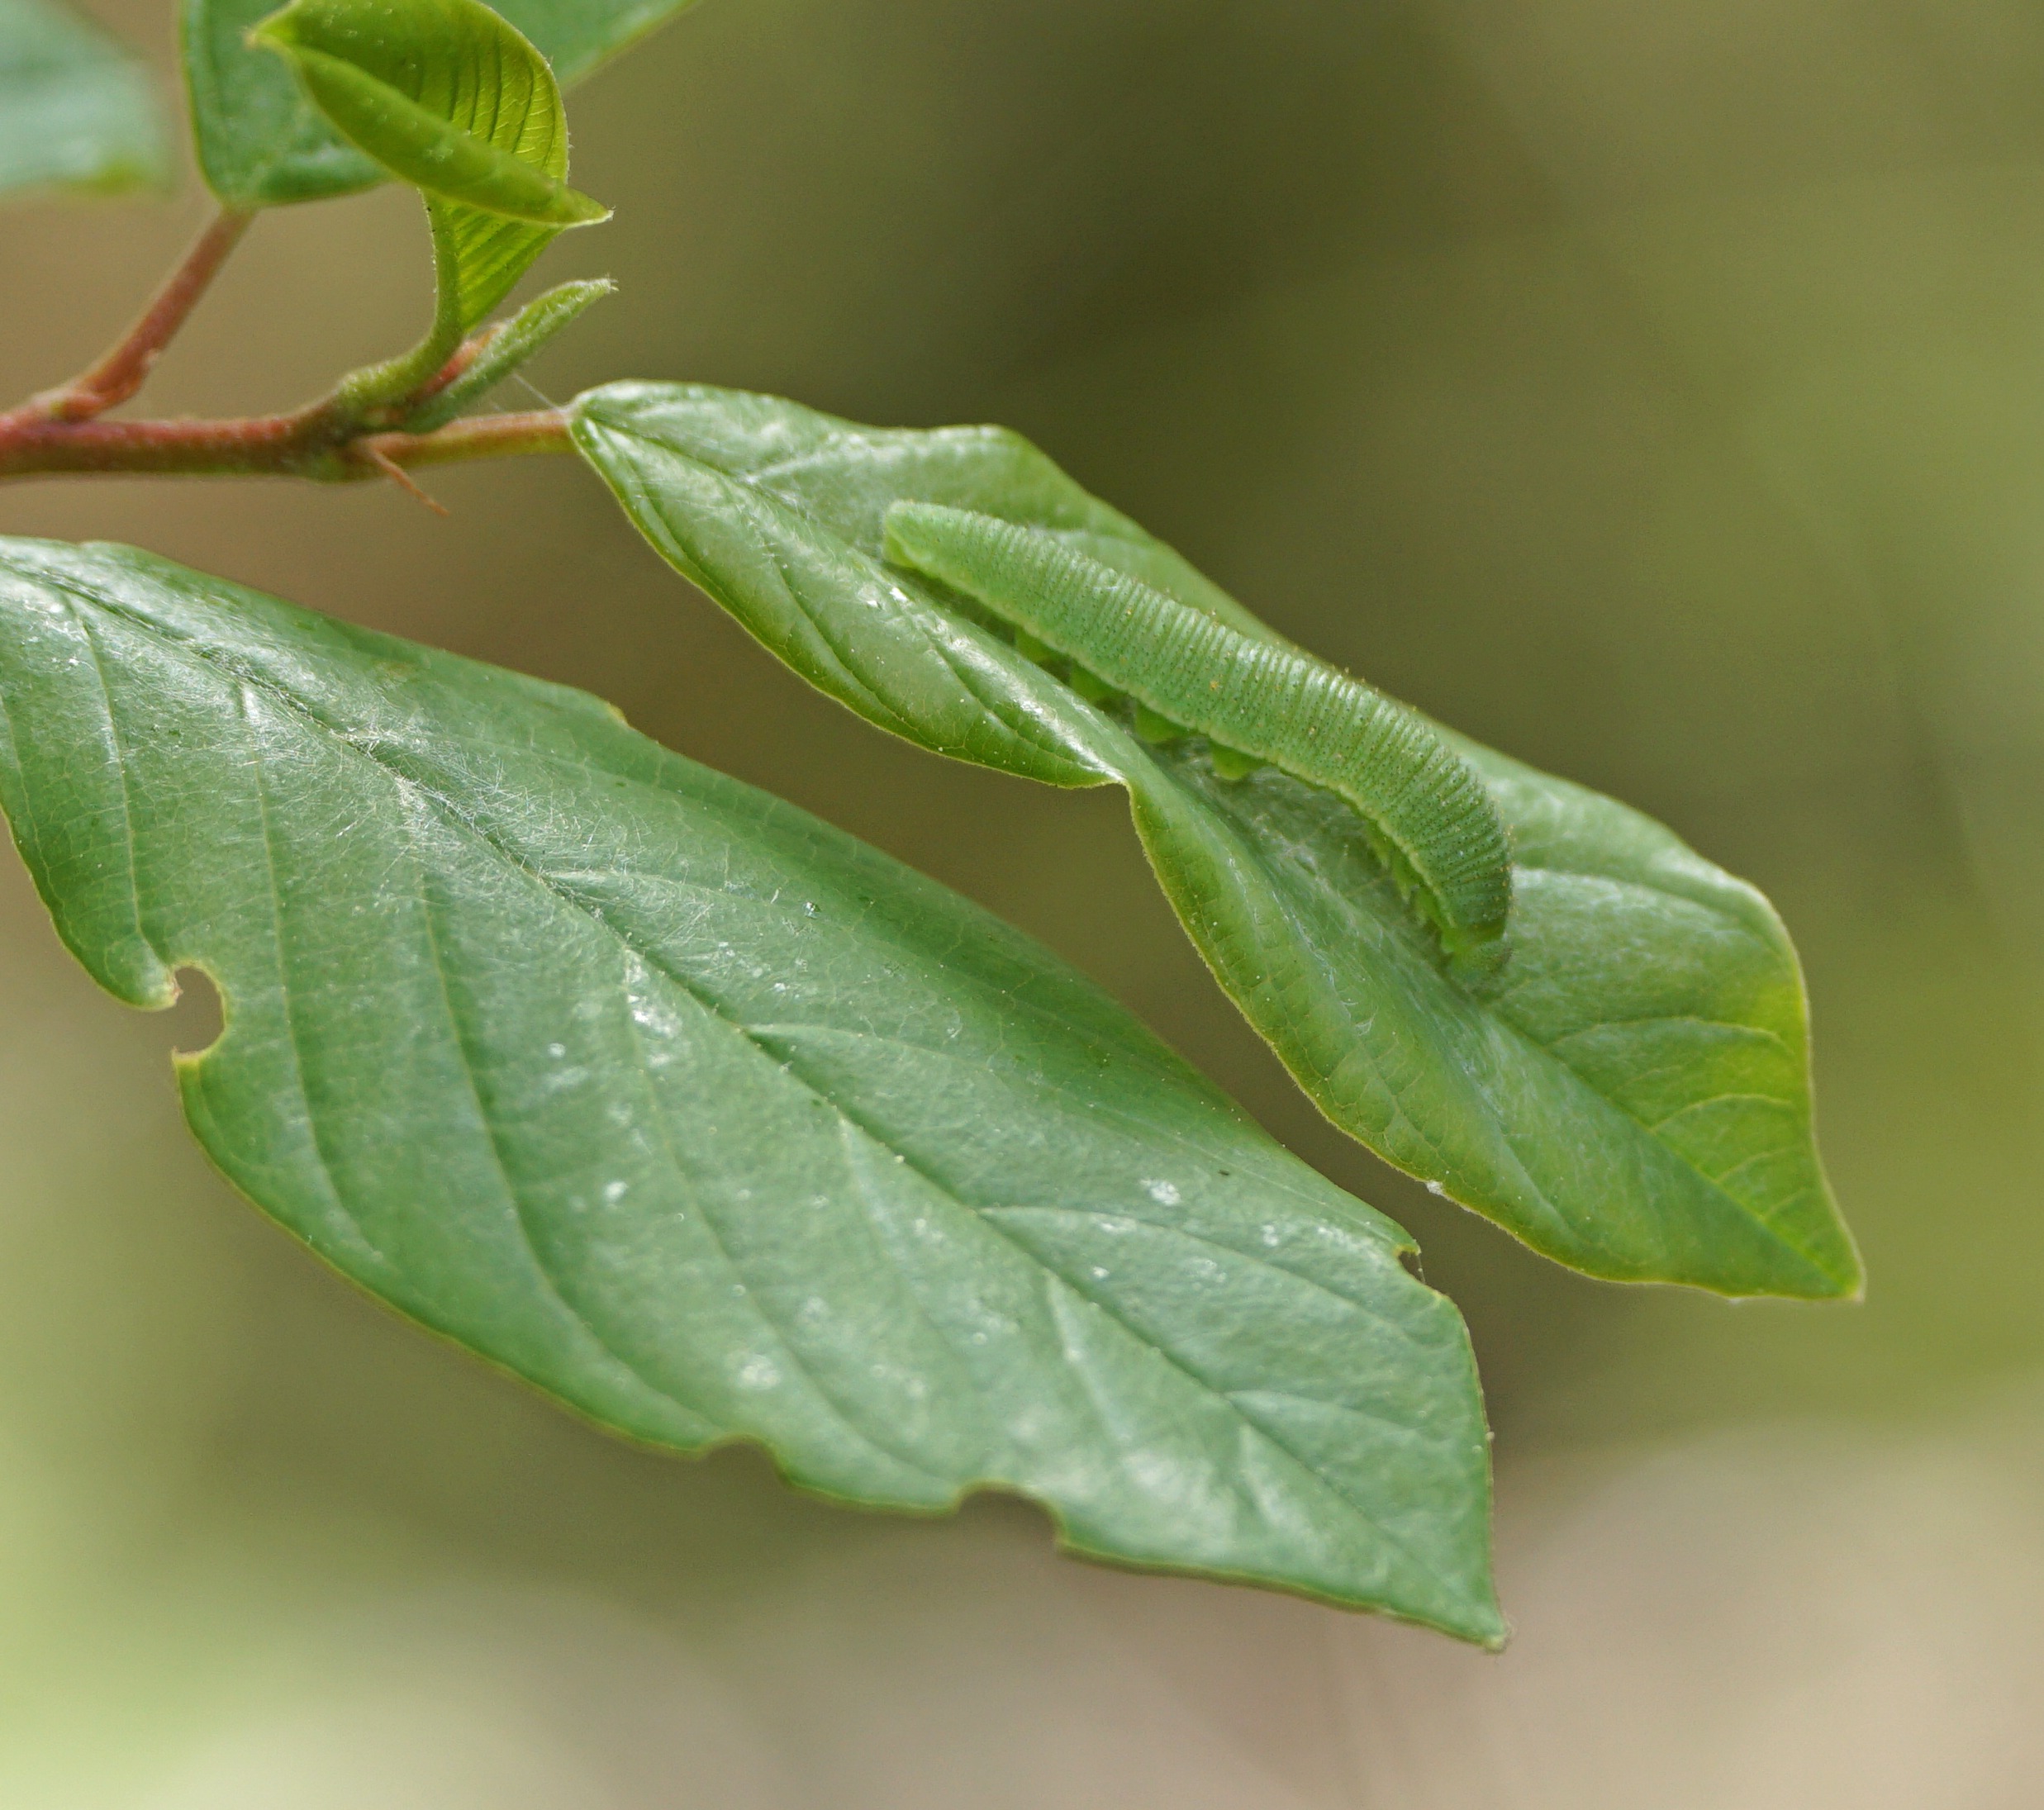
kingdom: Plantae
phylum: Tracheophyta
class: Magnoliopsida
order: Rosales
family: Rhamnaceae
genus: Frangula
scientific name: Frangula alnus
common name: Tørst
